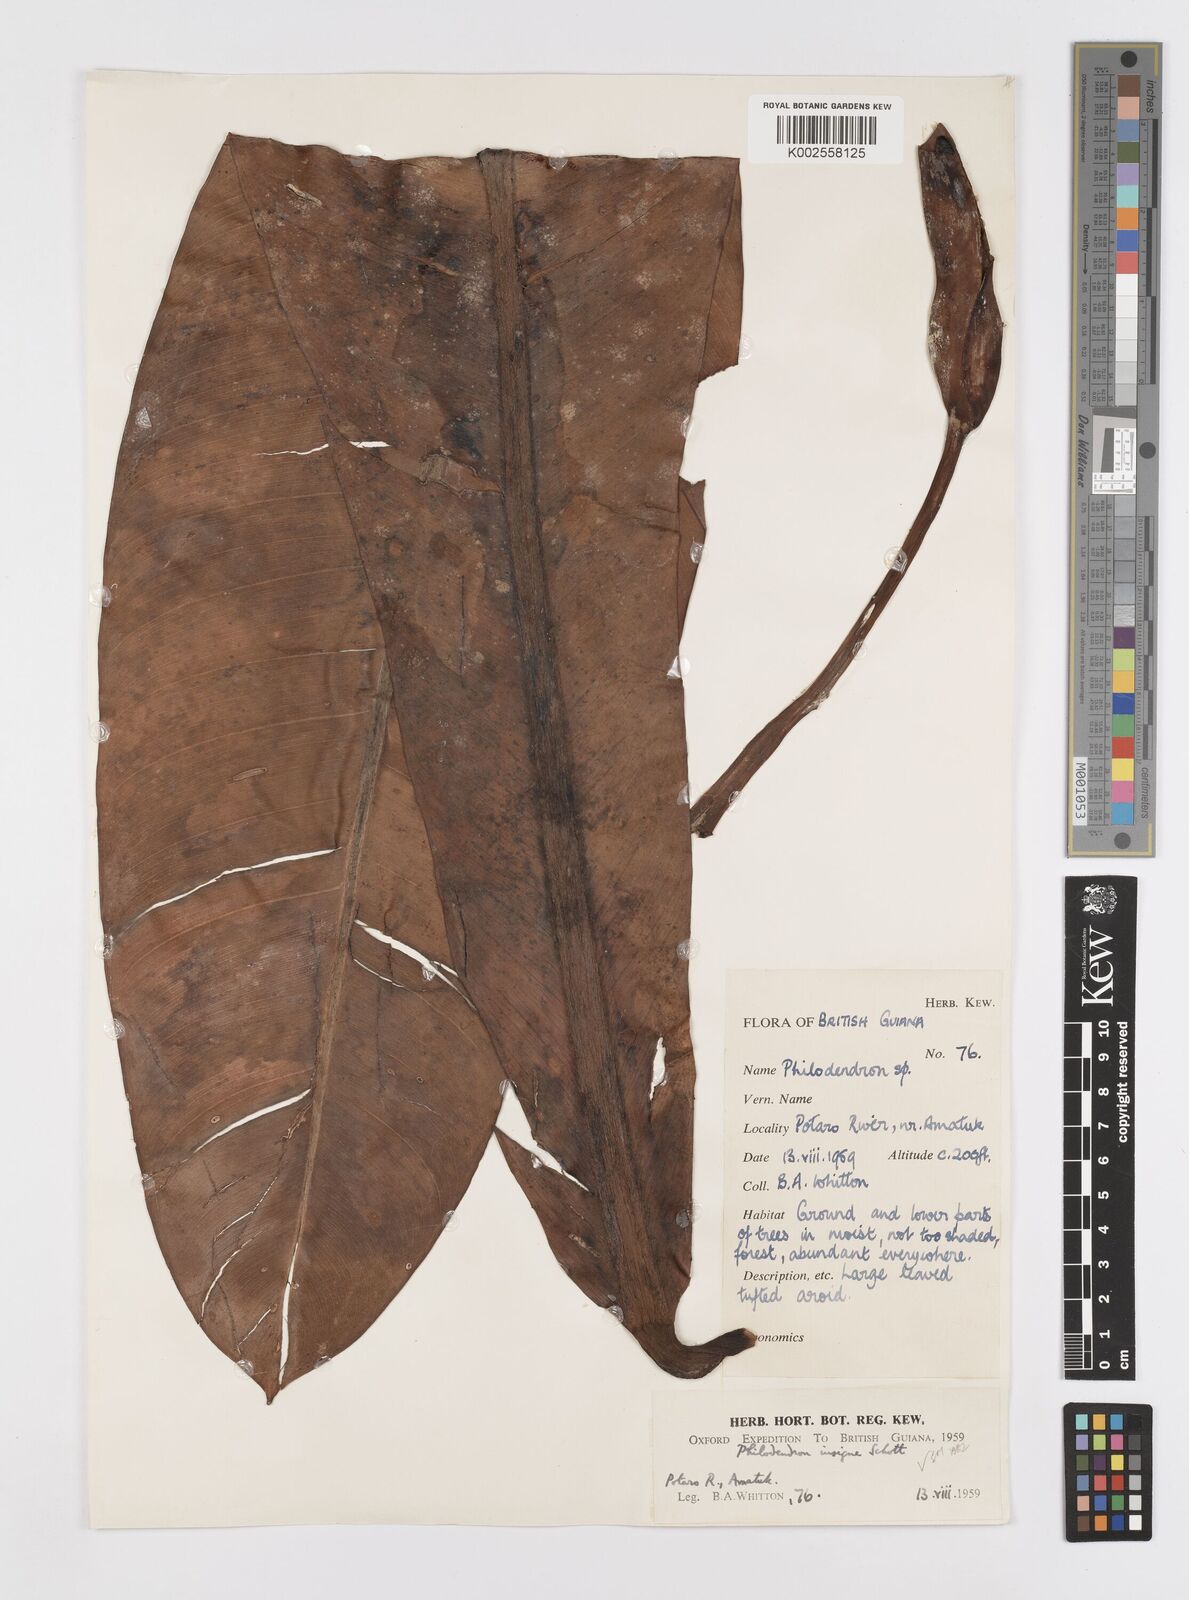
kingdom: Plantae
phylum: Tracheophyta
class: Liliopsida
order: Alismatales
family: Araceae
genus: Philodendron
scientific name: Philodendron insigne
